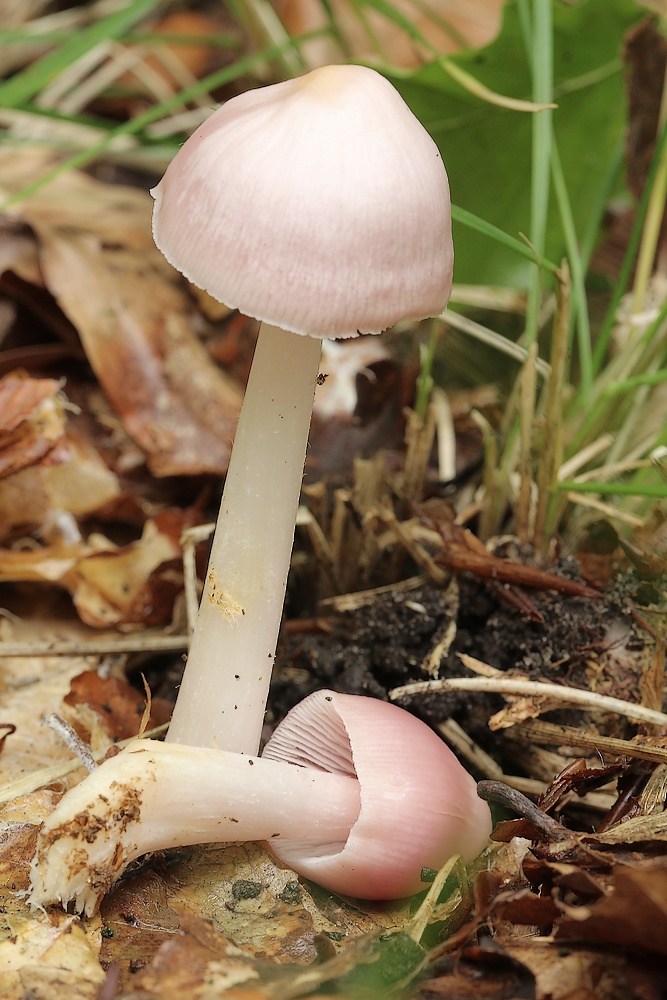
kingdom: Fungi
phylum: Basidiomycota
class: Agaricomycetes
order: Agaricales
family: Mycenaceae
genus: Mycena
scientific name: Mycena rosea
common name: rosa huesvamp
